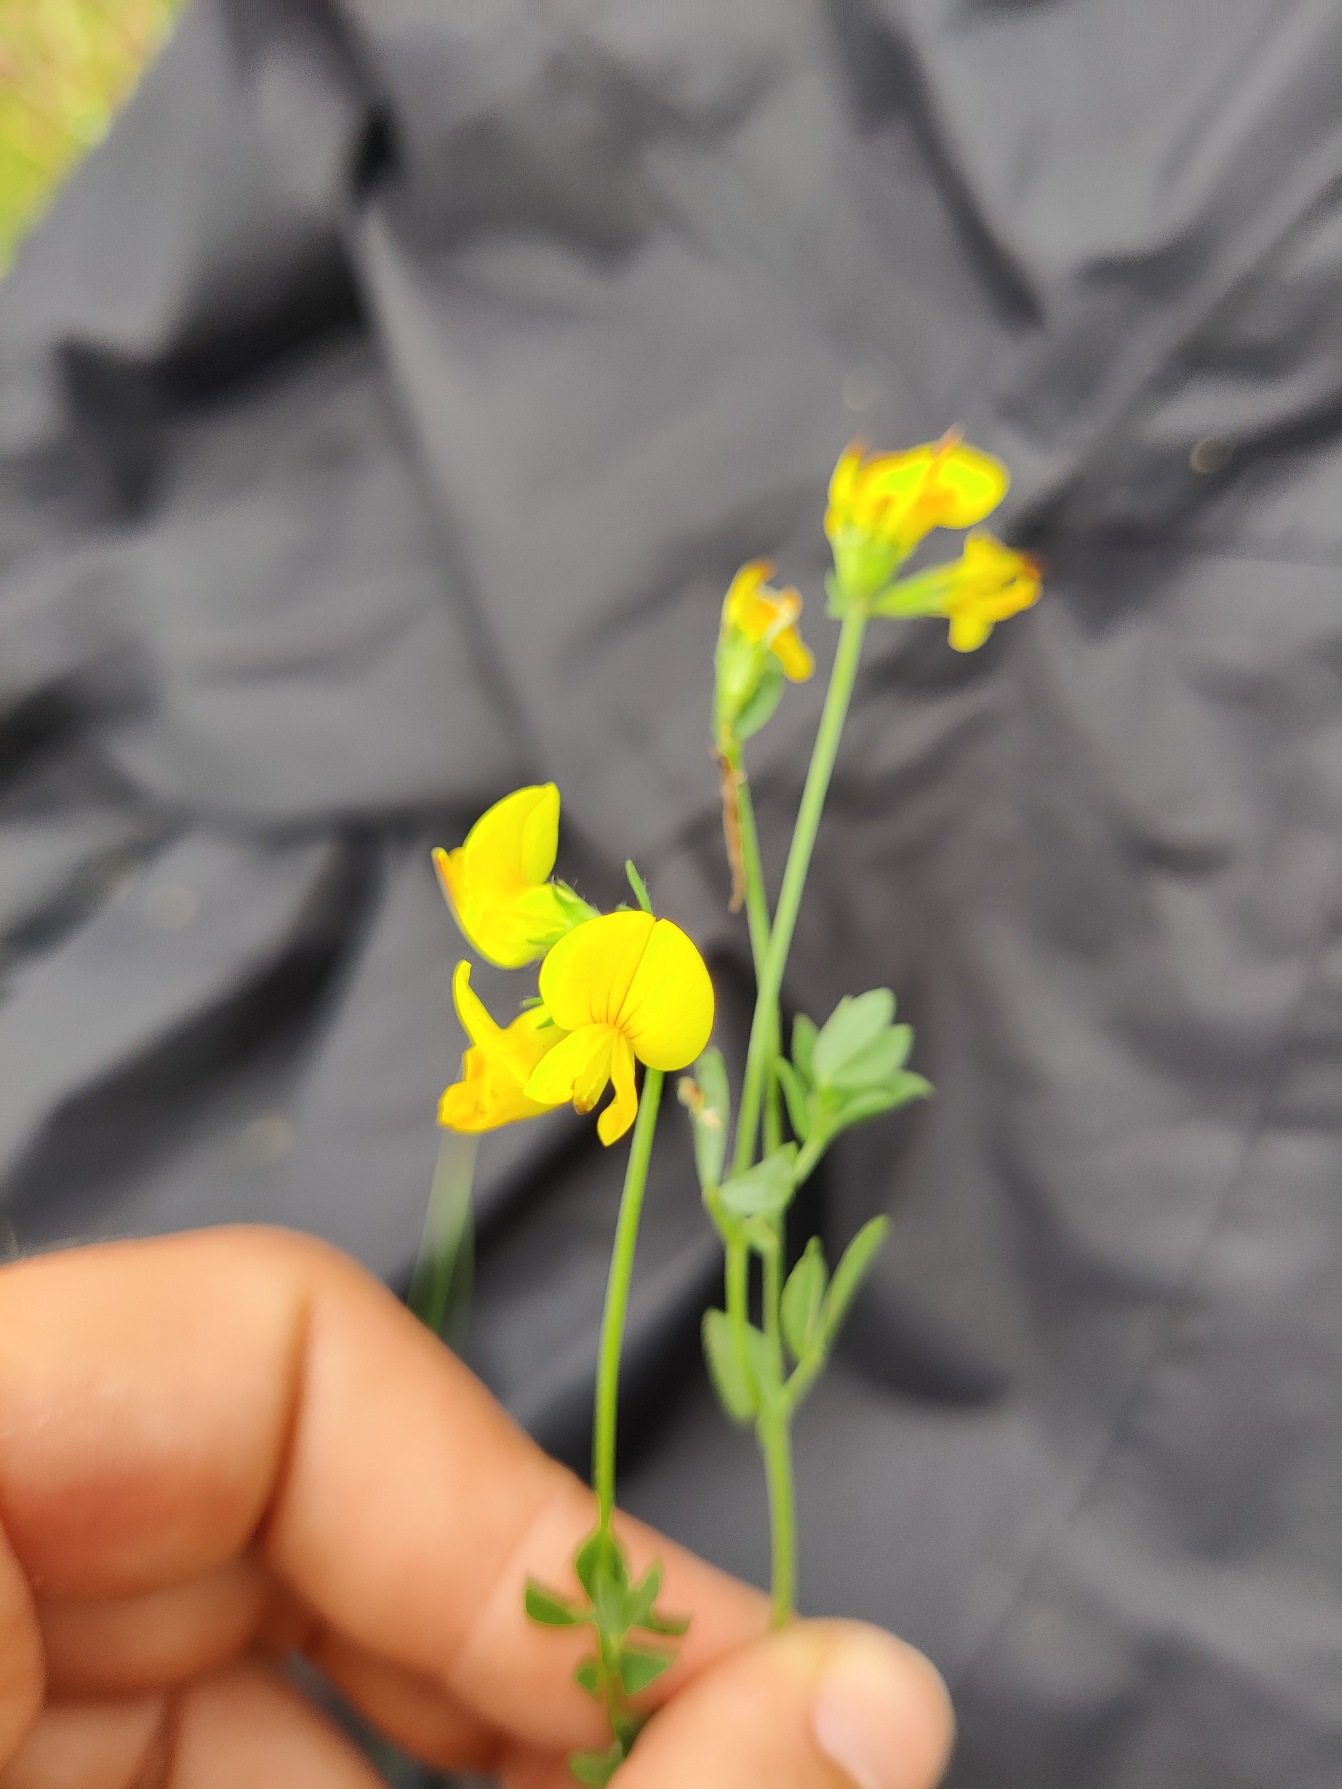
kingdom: Plantae
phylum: Tracheophyta
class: Magnoliopsida
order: Fabales
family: Fabaceae
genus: Lotus
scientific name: Lotus corniculatus
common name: Almindelig kællingetand
